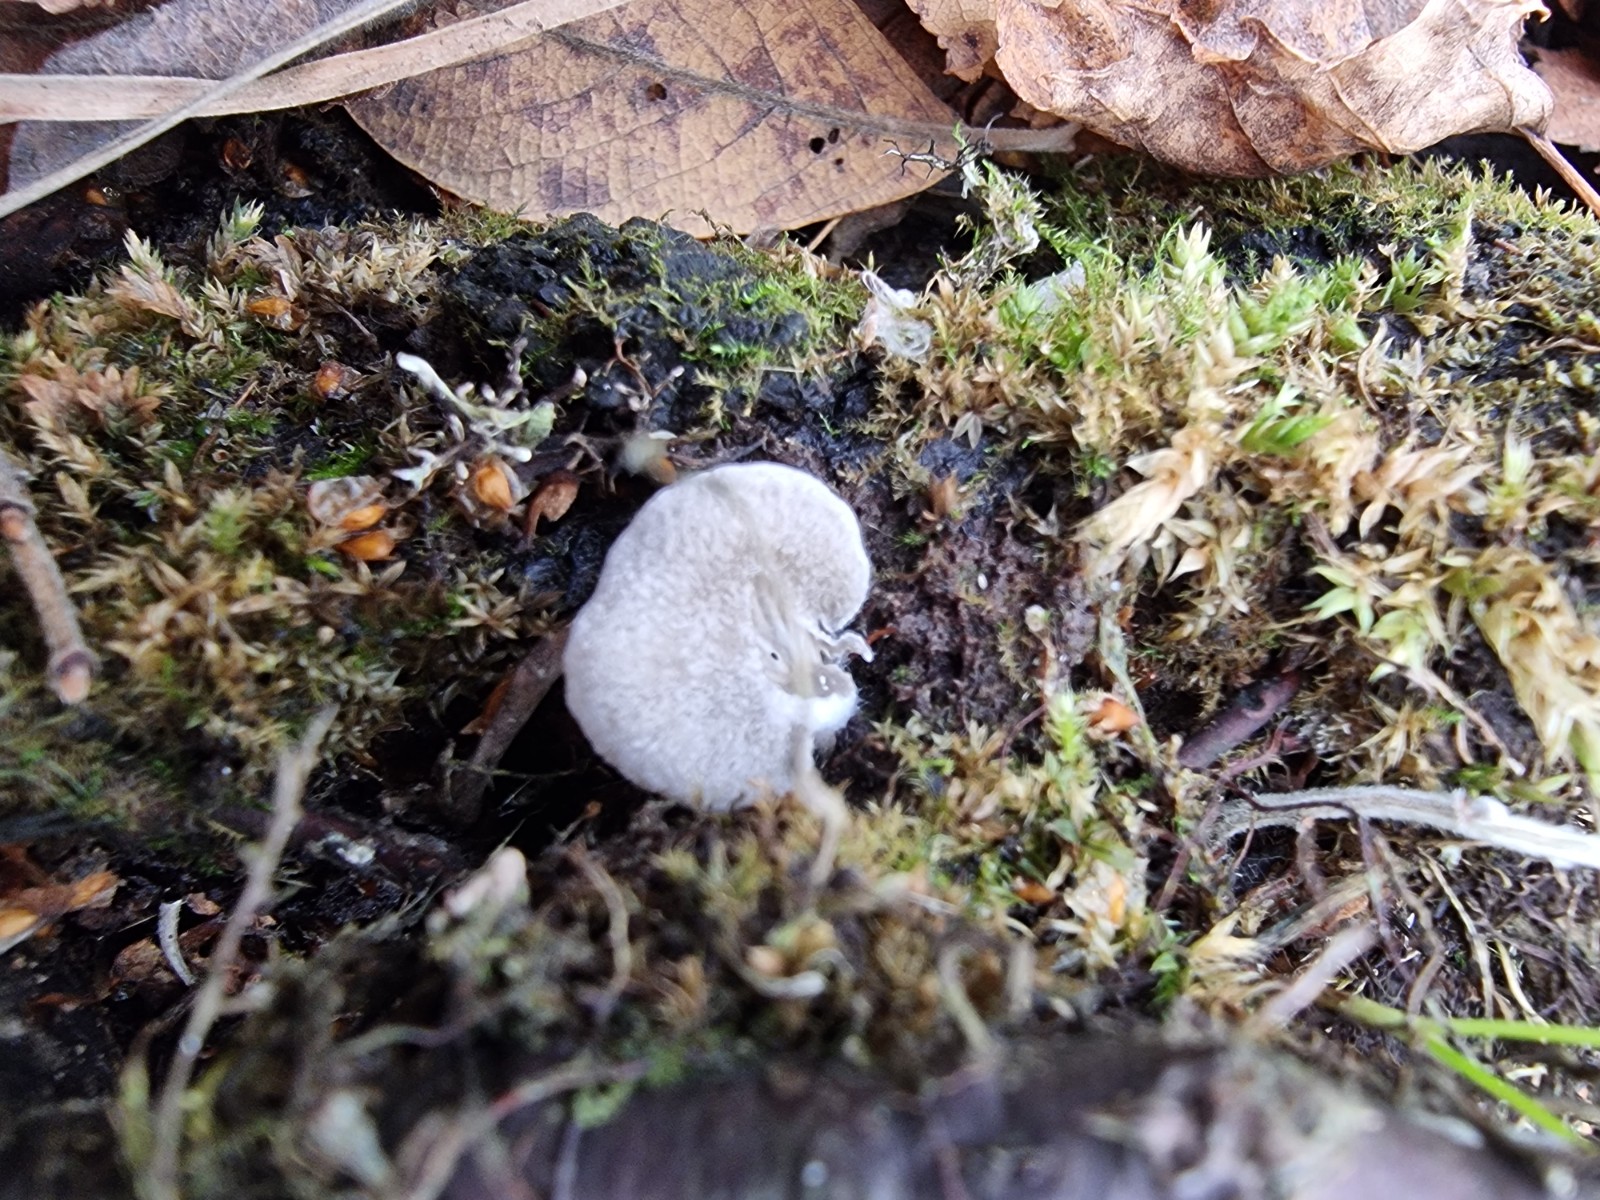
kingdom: Fungi
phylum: Basidiomycota
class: Agaricomycetes
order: Agaricales
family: Entolomataceae
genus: Entoloma
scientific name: Entoloma
